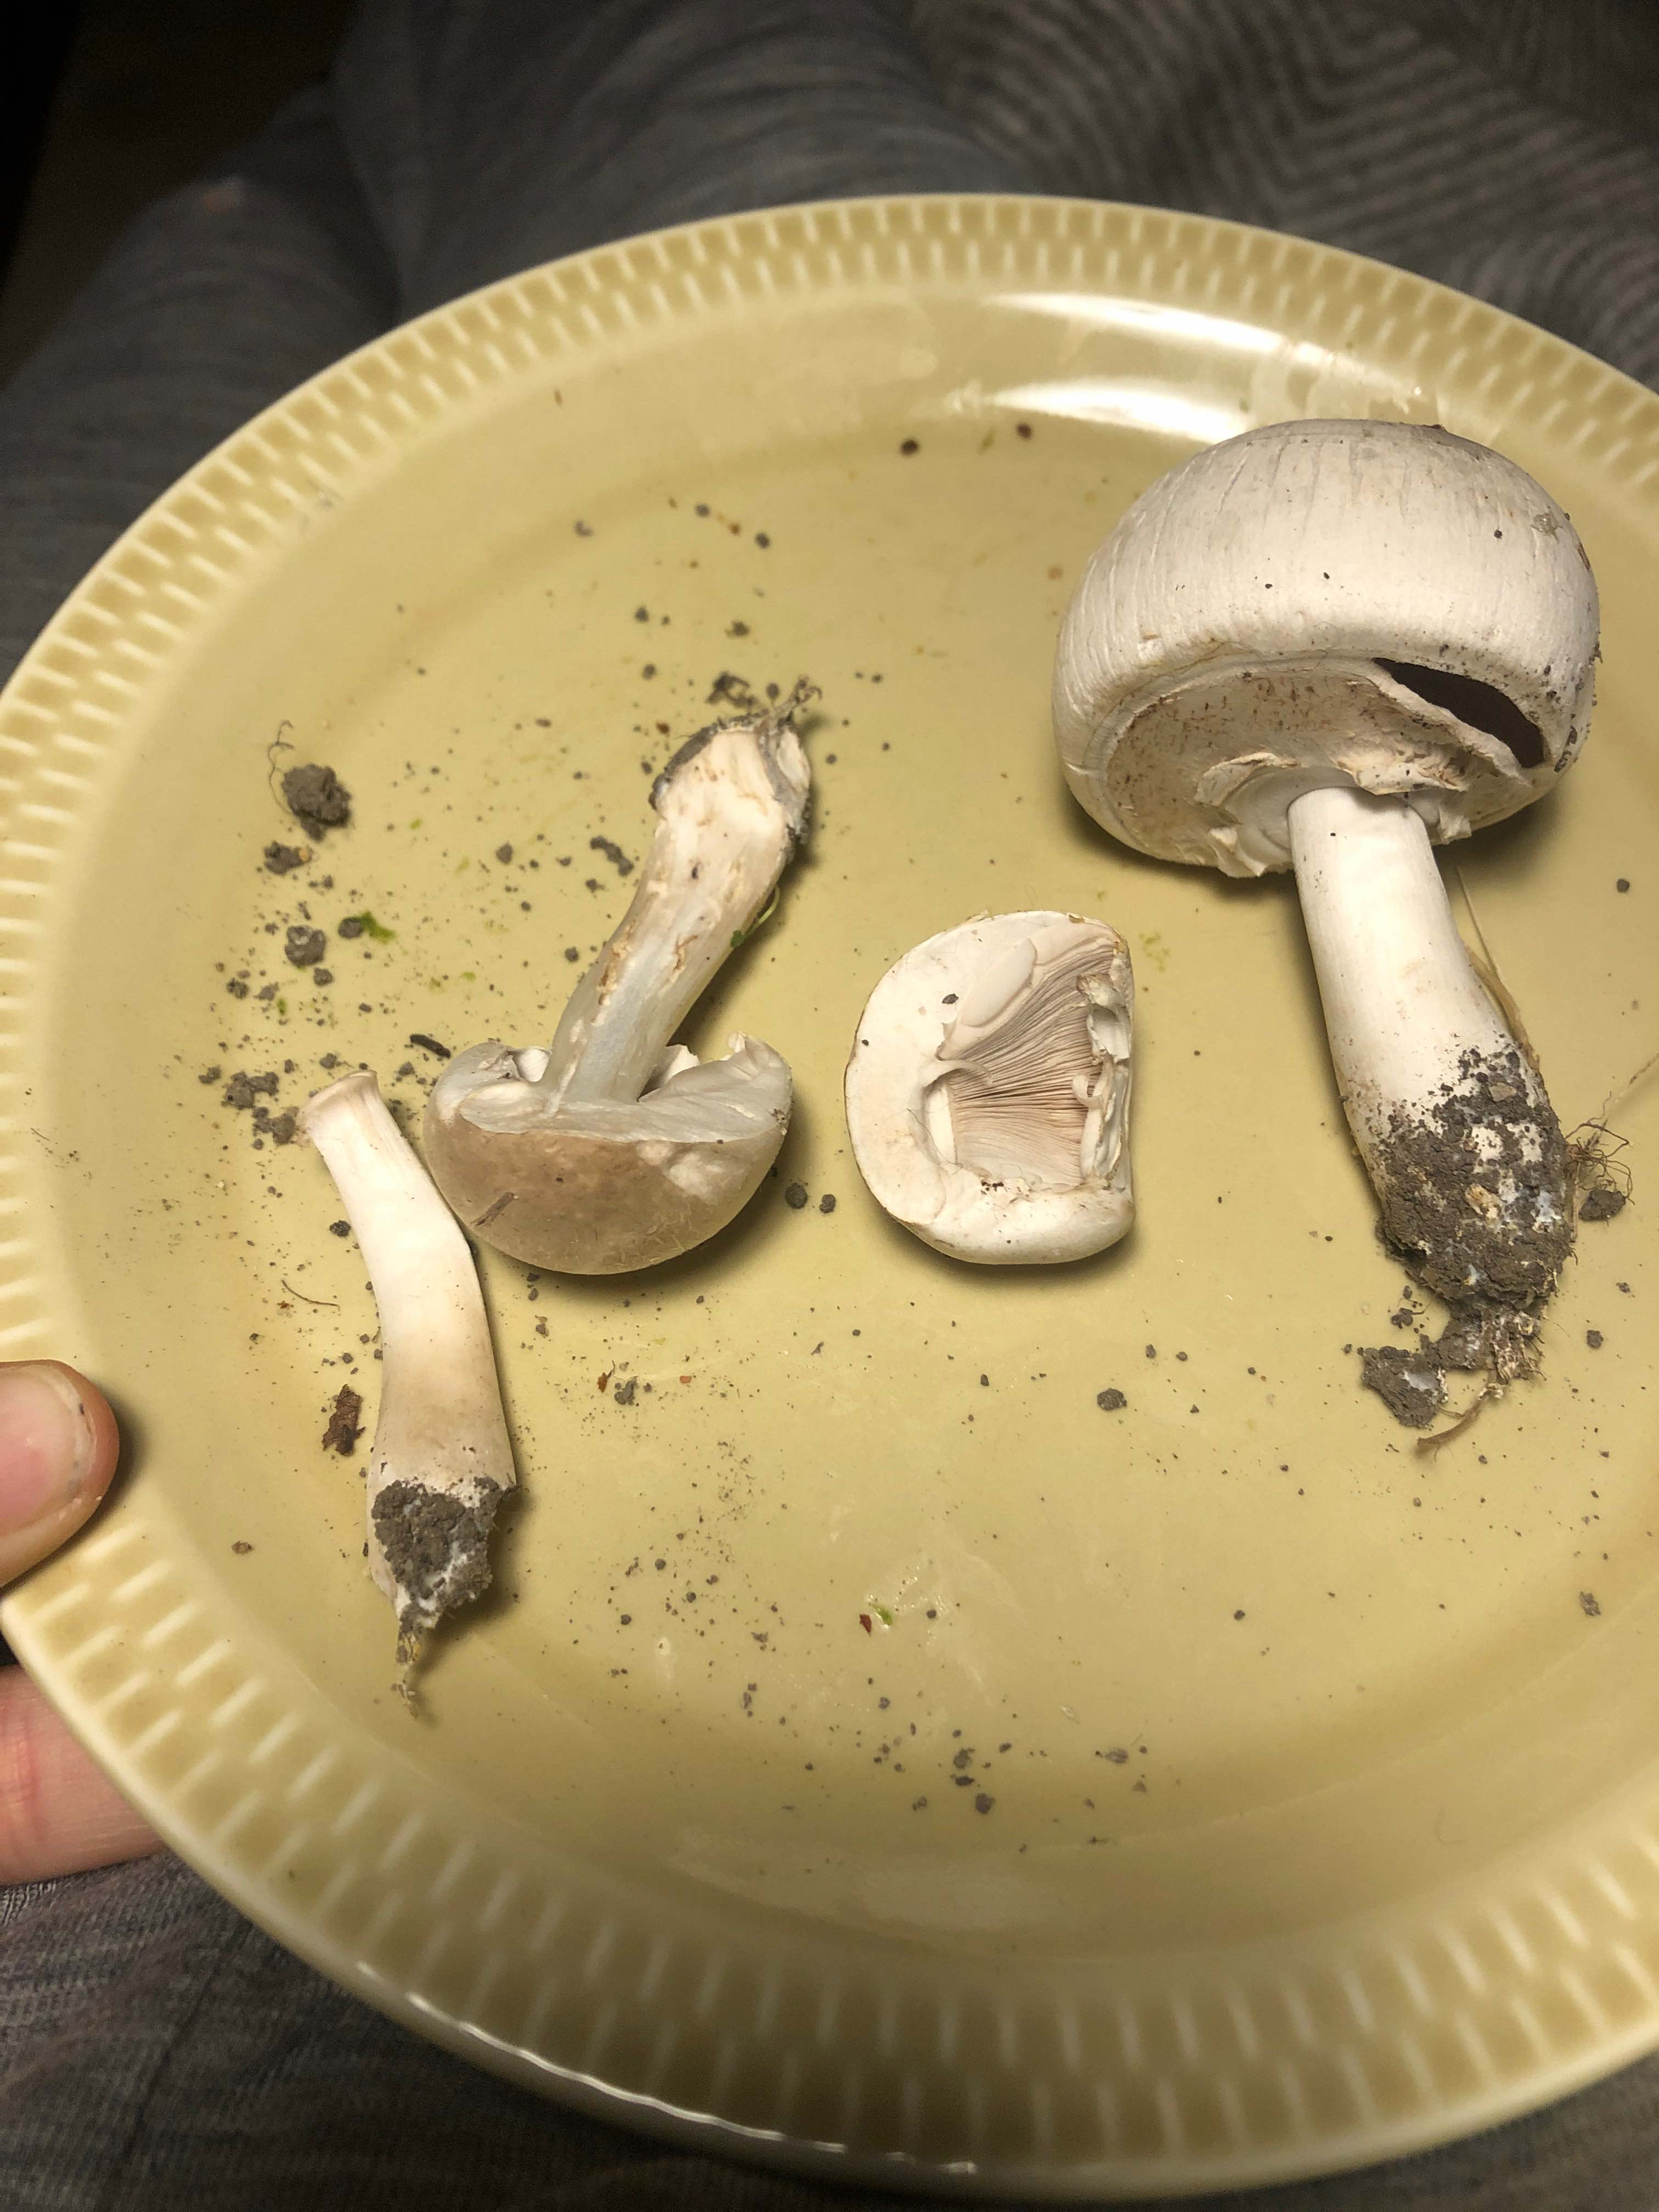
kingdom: Fungi
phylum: Basidiomycota
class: Agaricomycetes
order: Agaricales
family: Agaricaceae
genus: Agaricus
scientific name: Agaricus xanthodermus
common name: karbol-champignon
